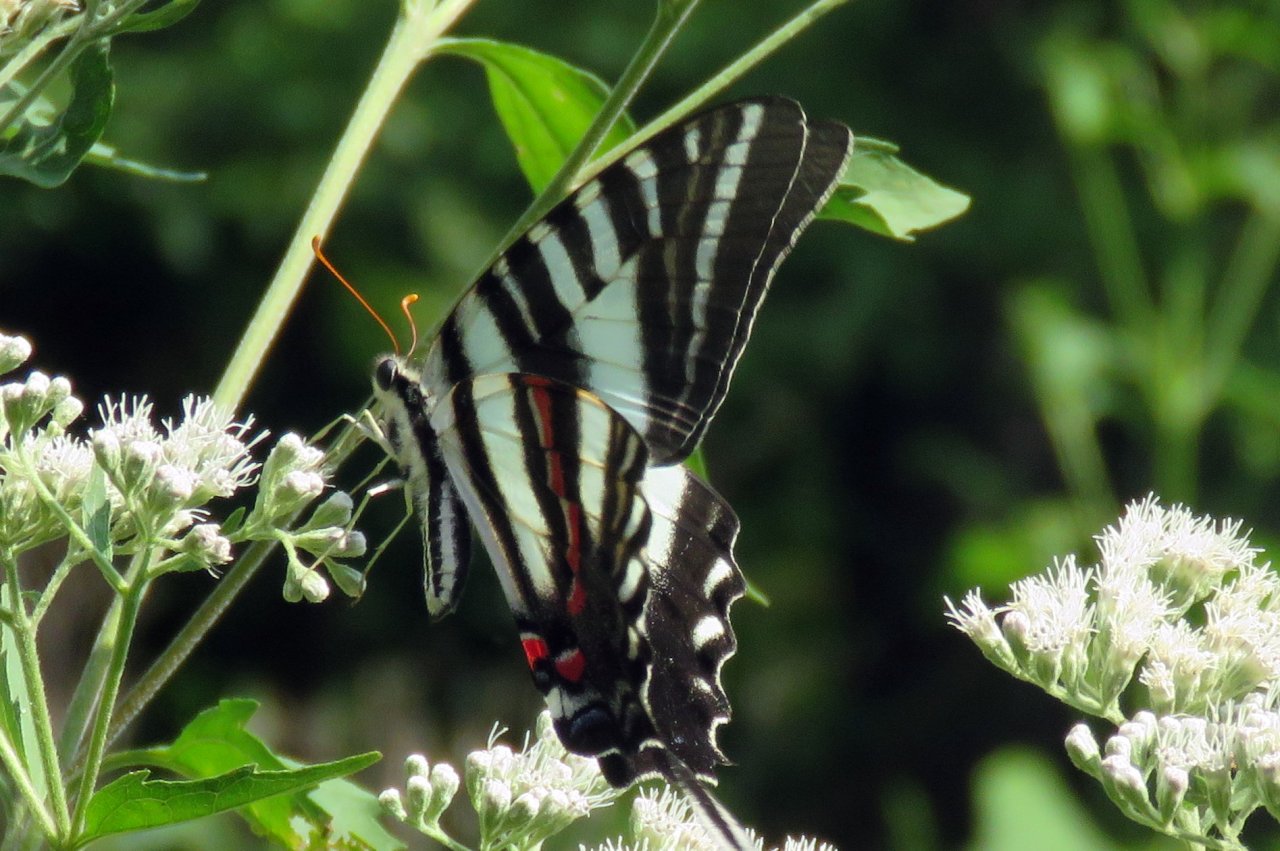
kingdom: Animalia
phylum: Arthropoda
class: Insecta
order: Lepidoptera
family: Papilionidae
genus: Protographium
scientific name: Protographium marcellus
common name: Zebra Swallowtail
